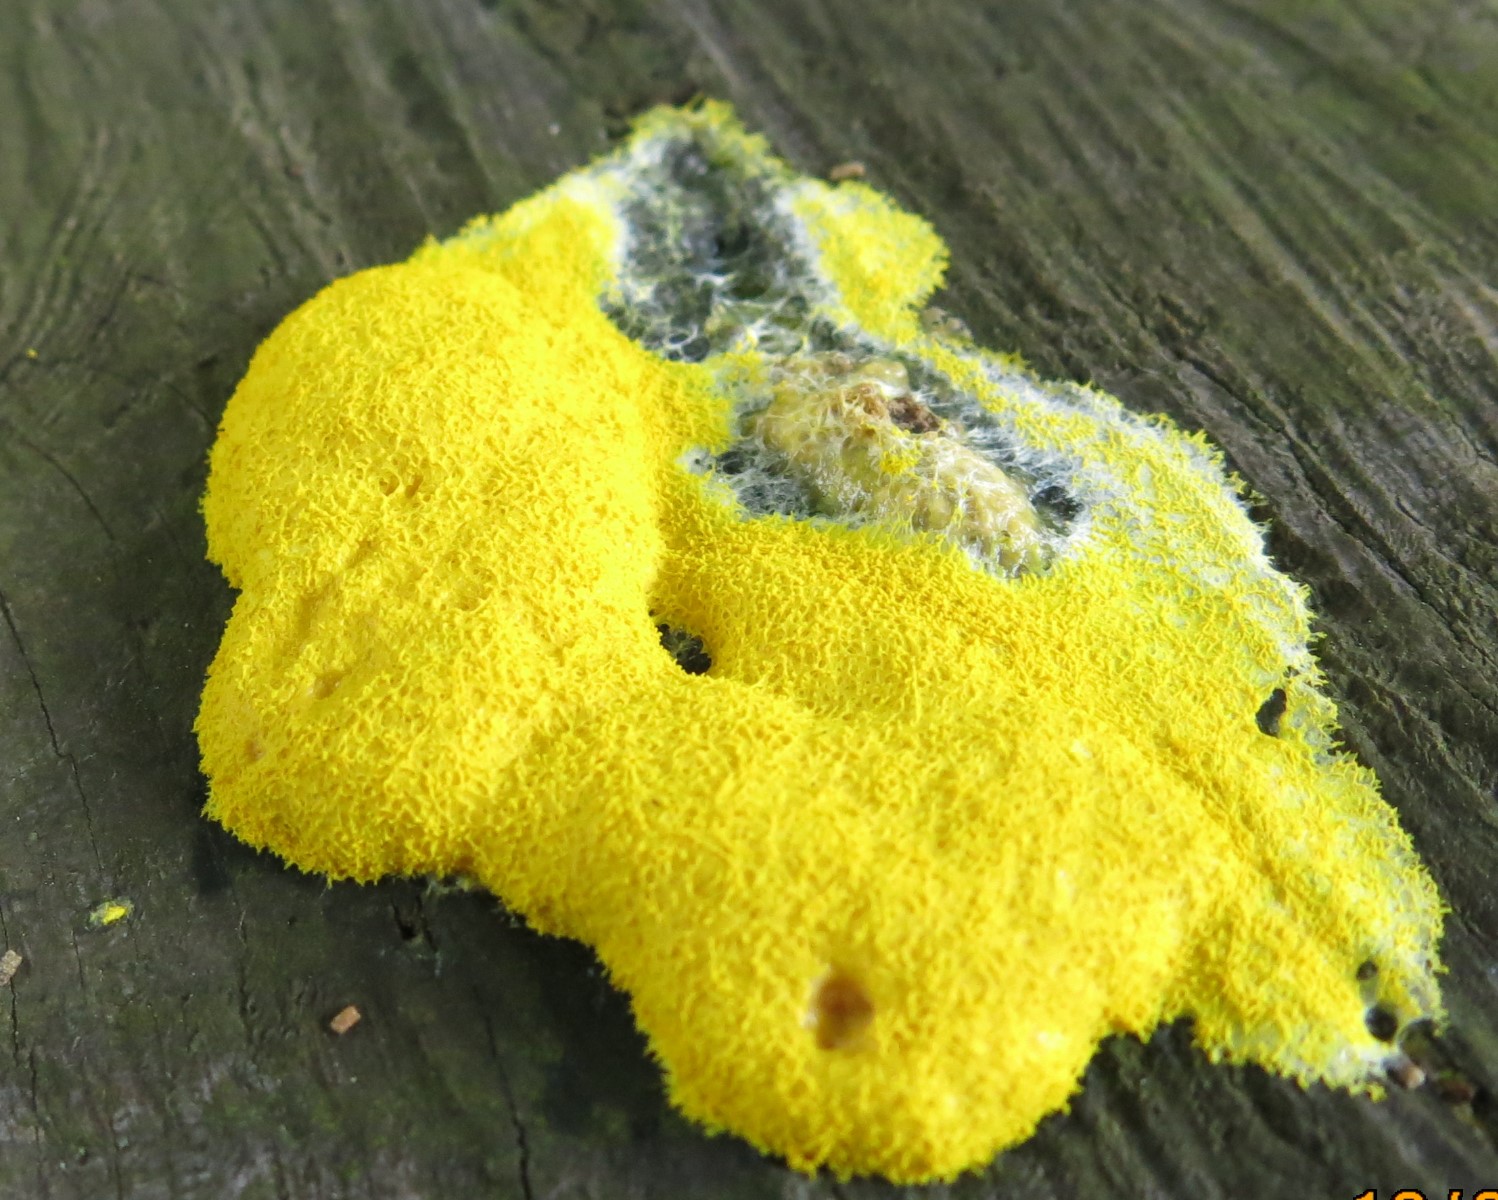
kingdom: Protozoa
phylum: Mycetozoa
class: Myxomycetes
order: Physarales
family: Physaraceae
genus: Fuligo
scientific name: Fuligo septica
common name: gul troldsmør
